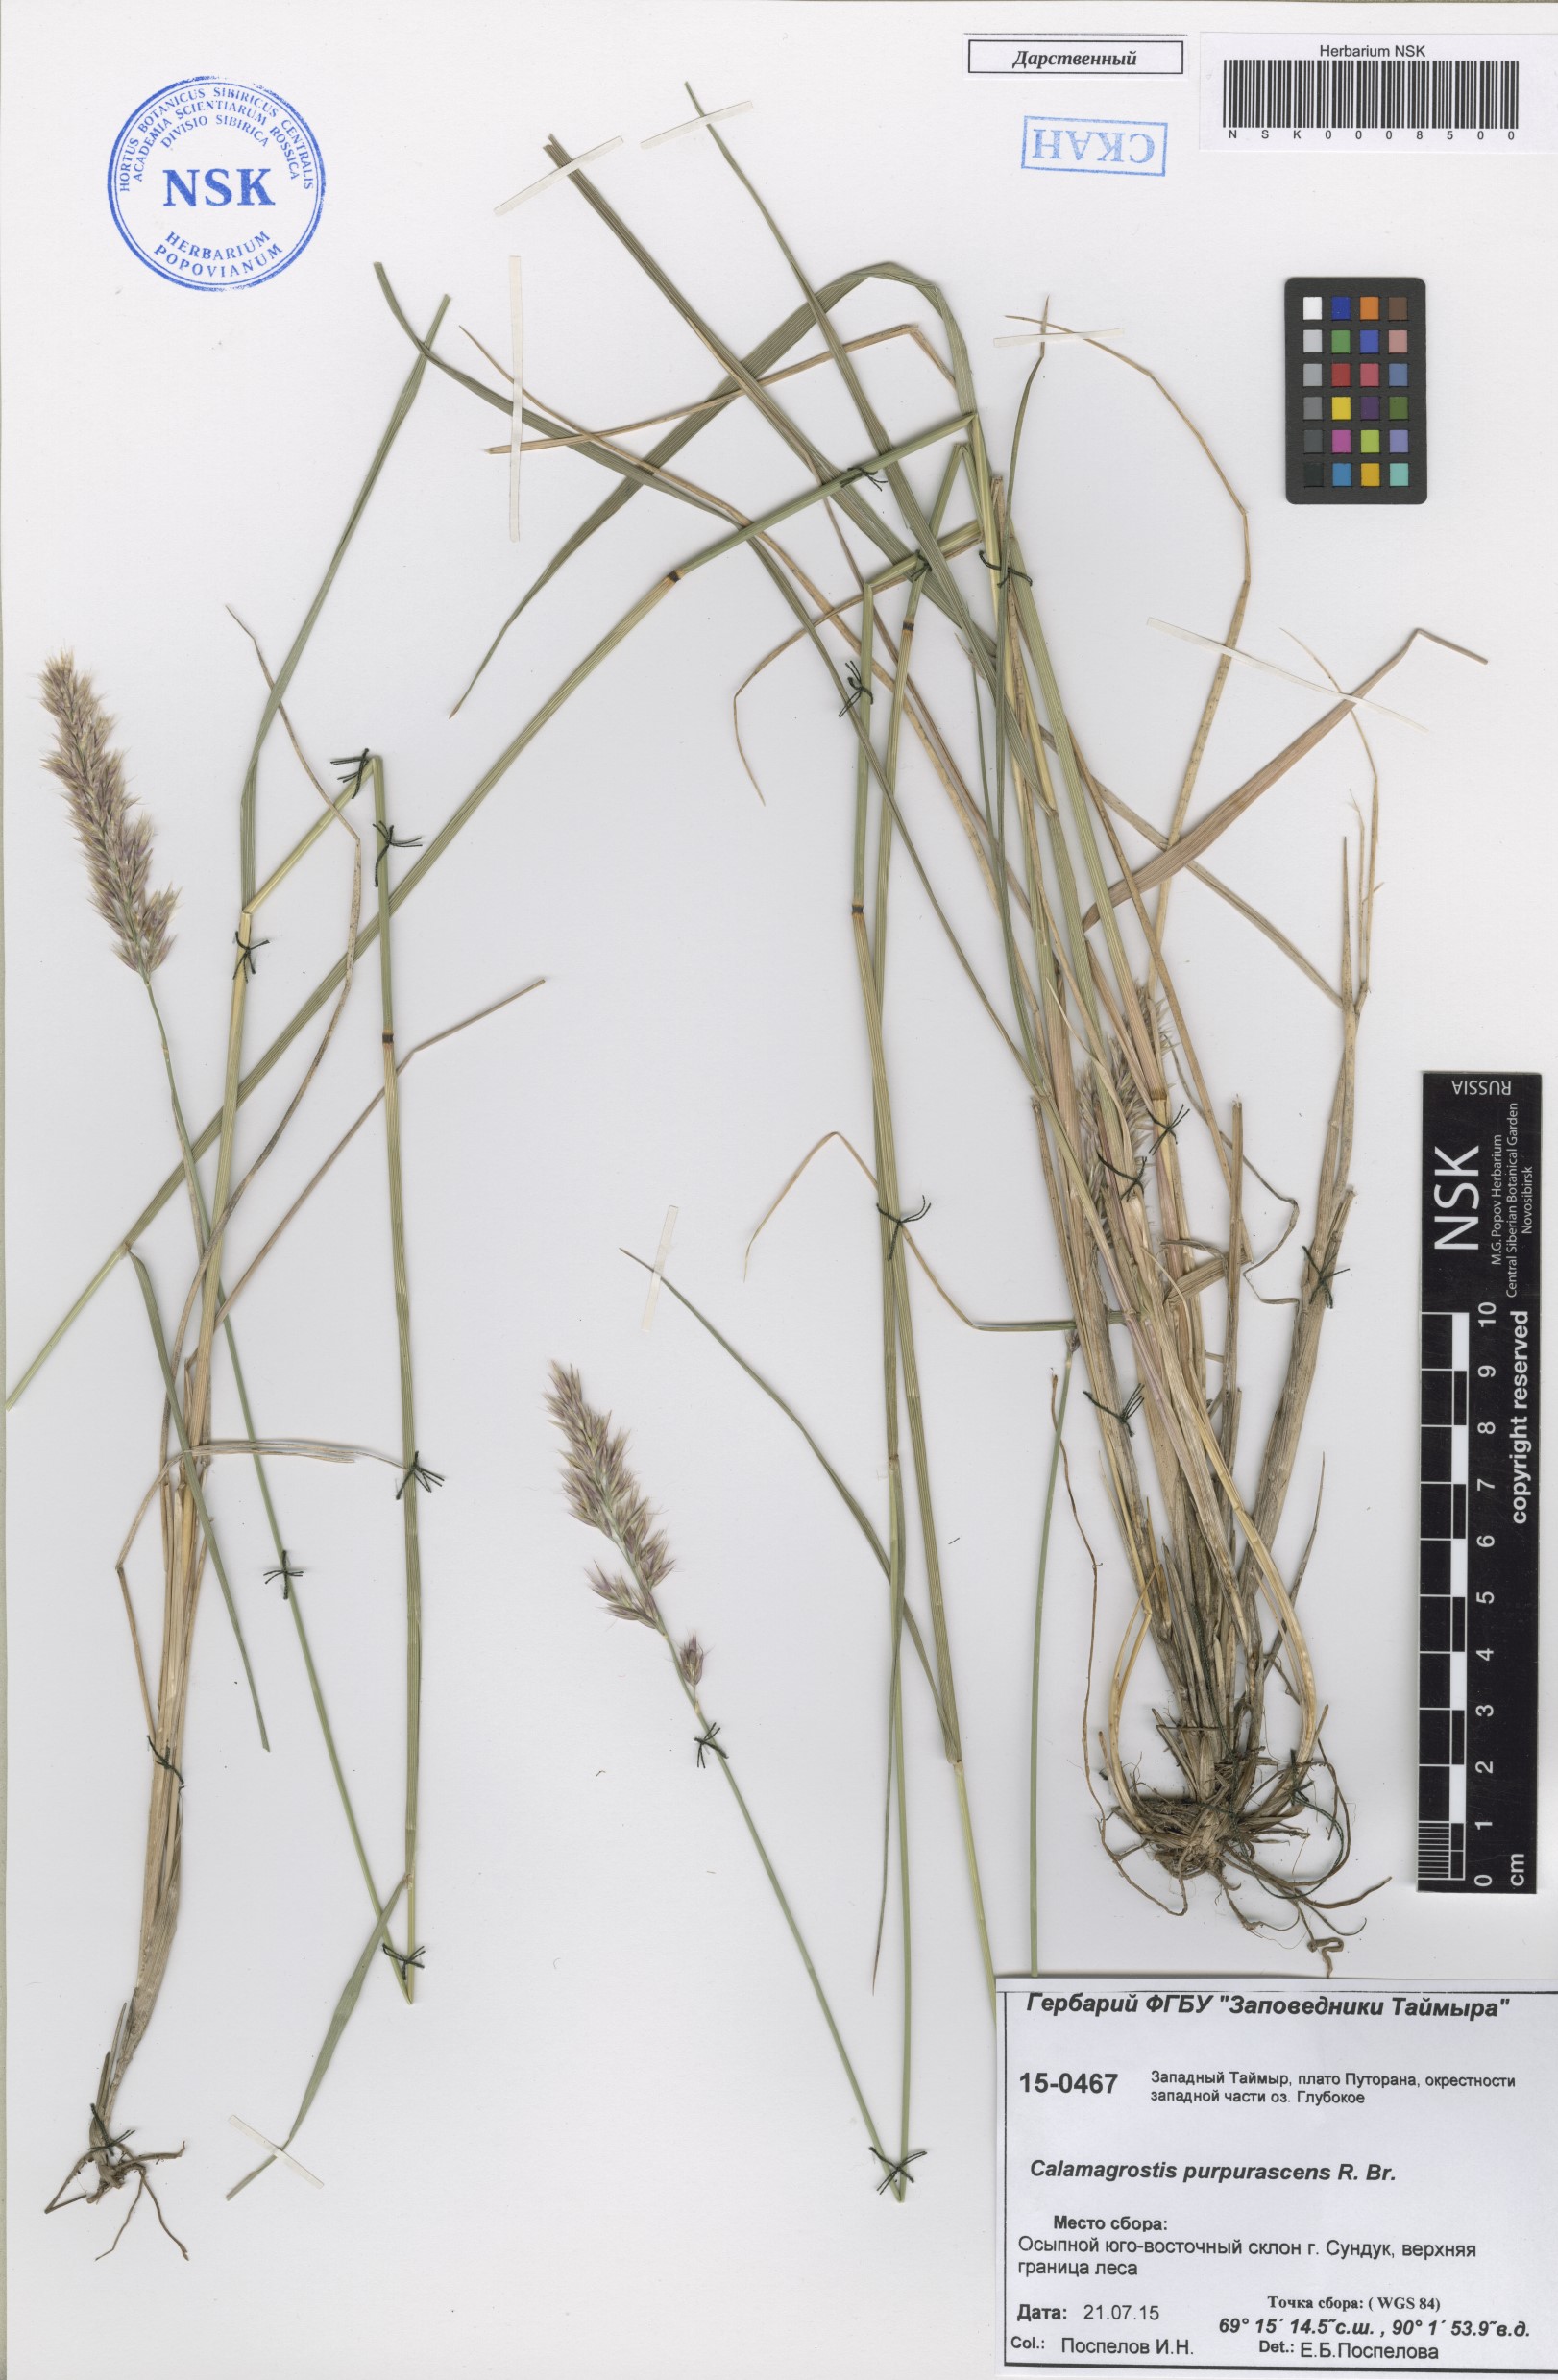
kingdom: Plantae
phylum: Tracheophyta
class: Liliopsida
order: Poales
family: Poaceae
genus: Calamagrostis
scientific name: Calamagrostis purpurascens
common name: Purple reedgrass
